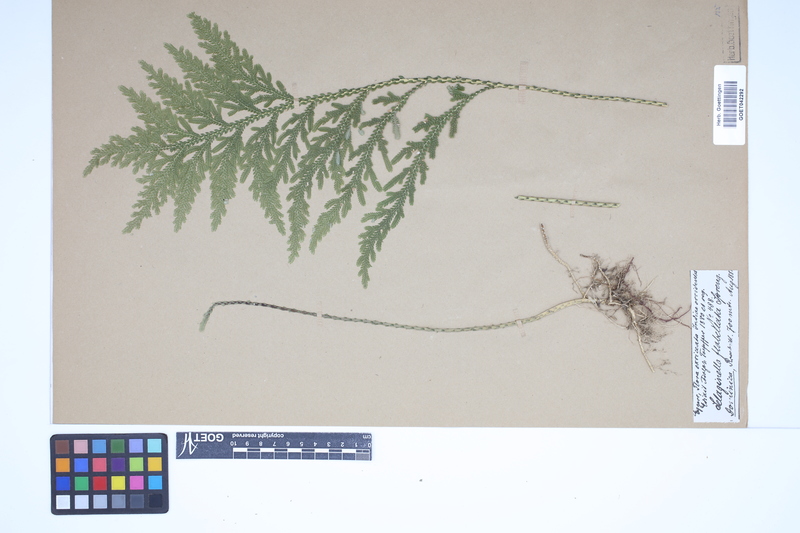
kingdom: Plantae
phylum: Tracheophyta
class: Lycopodiopsida
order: Selaginellales
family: Selaginellaceae
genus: Selaginella
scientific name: Selaginella flabellata
